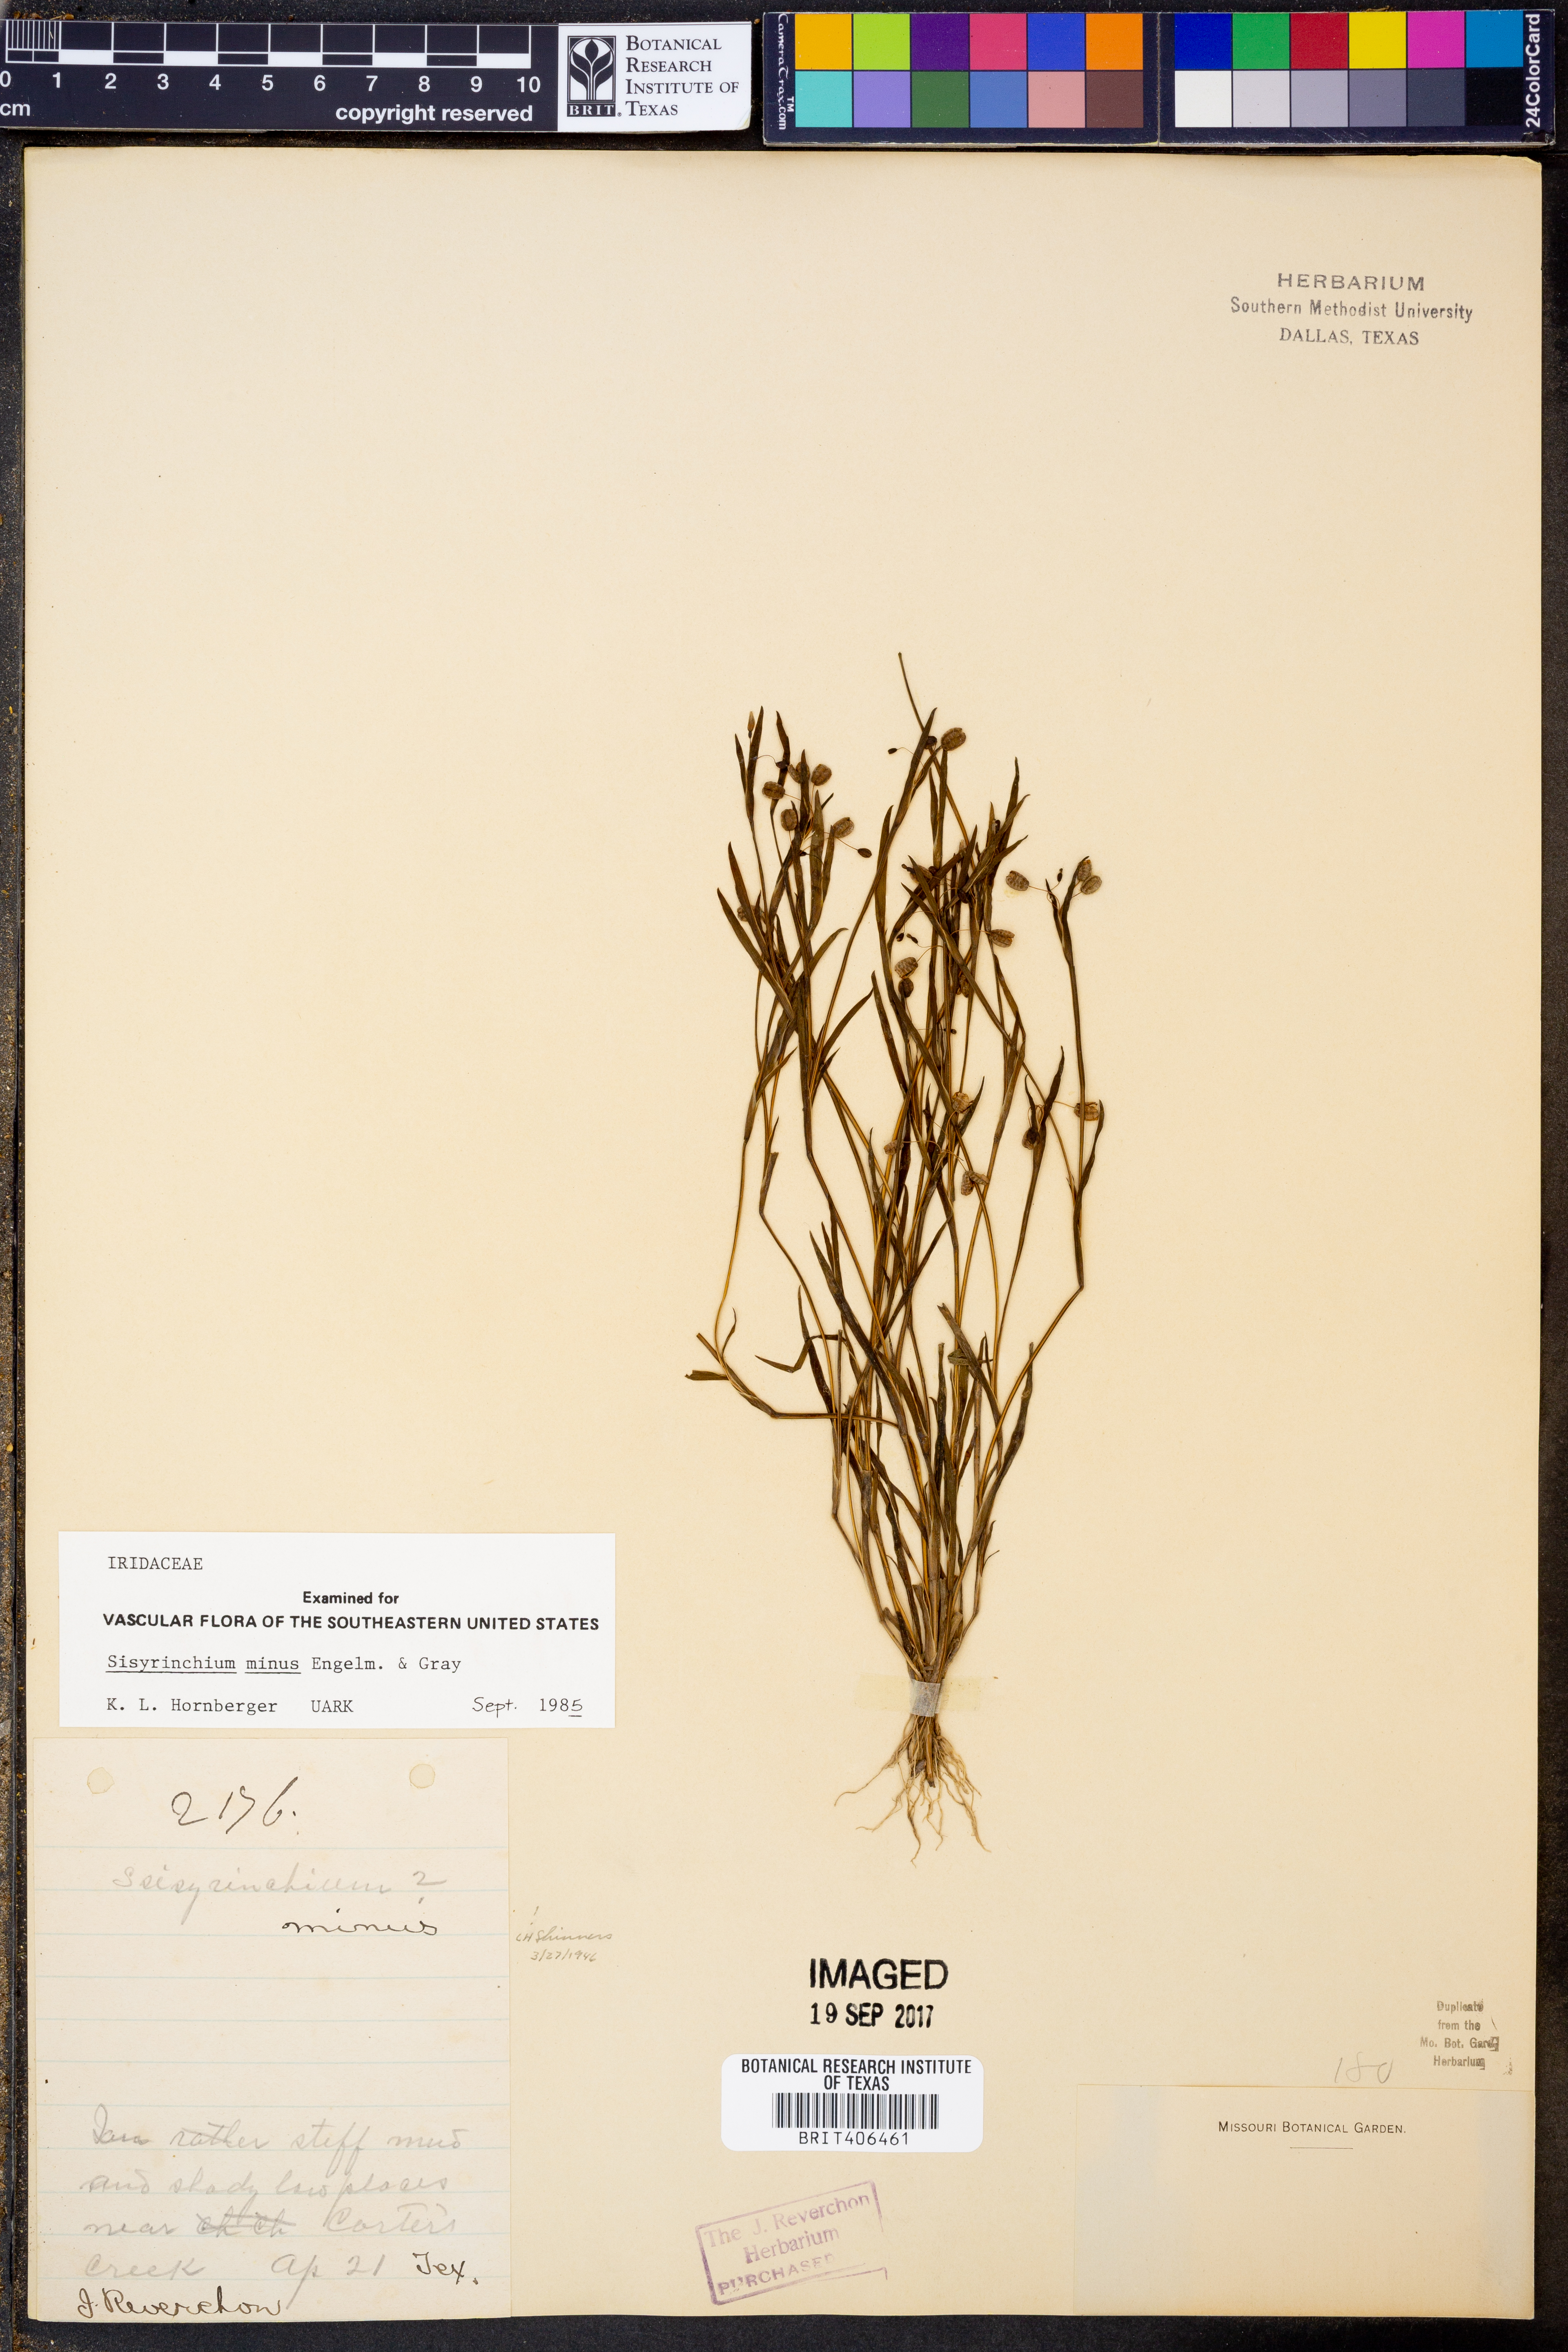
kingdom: Plantae
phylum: Tracheophyta
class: Liliopsida
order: Asparagales
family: Iridaceae
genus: Sisyrinchium
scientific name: Sisyrinchium minus
